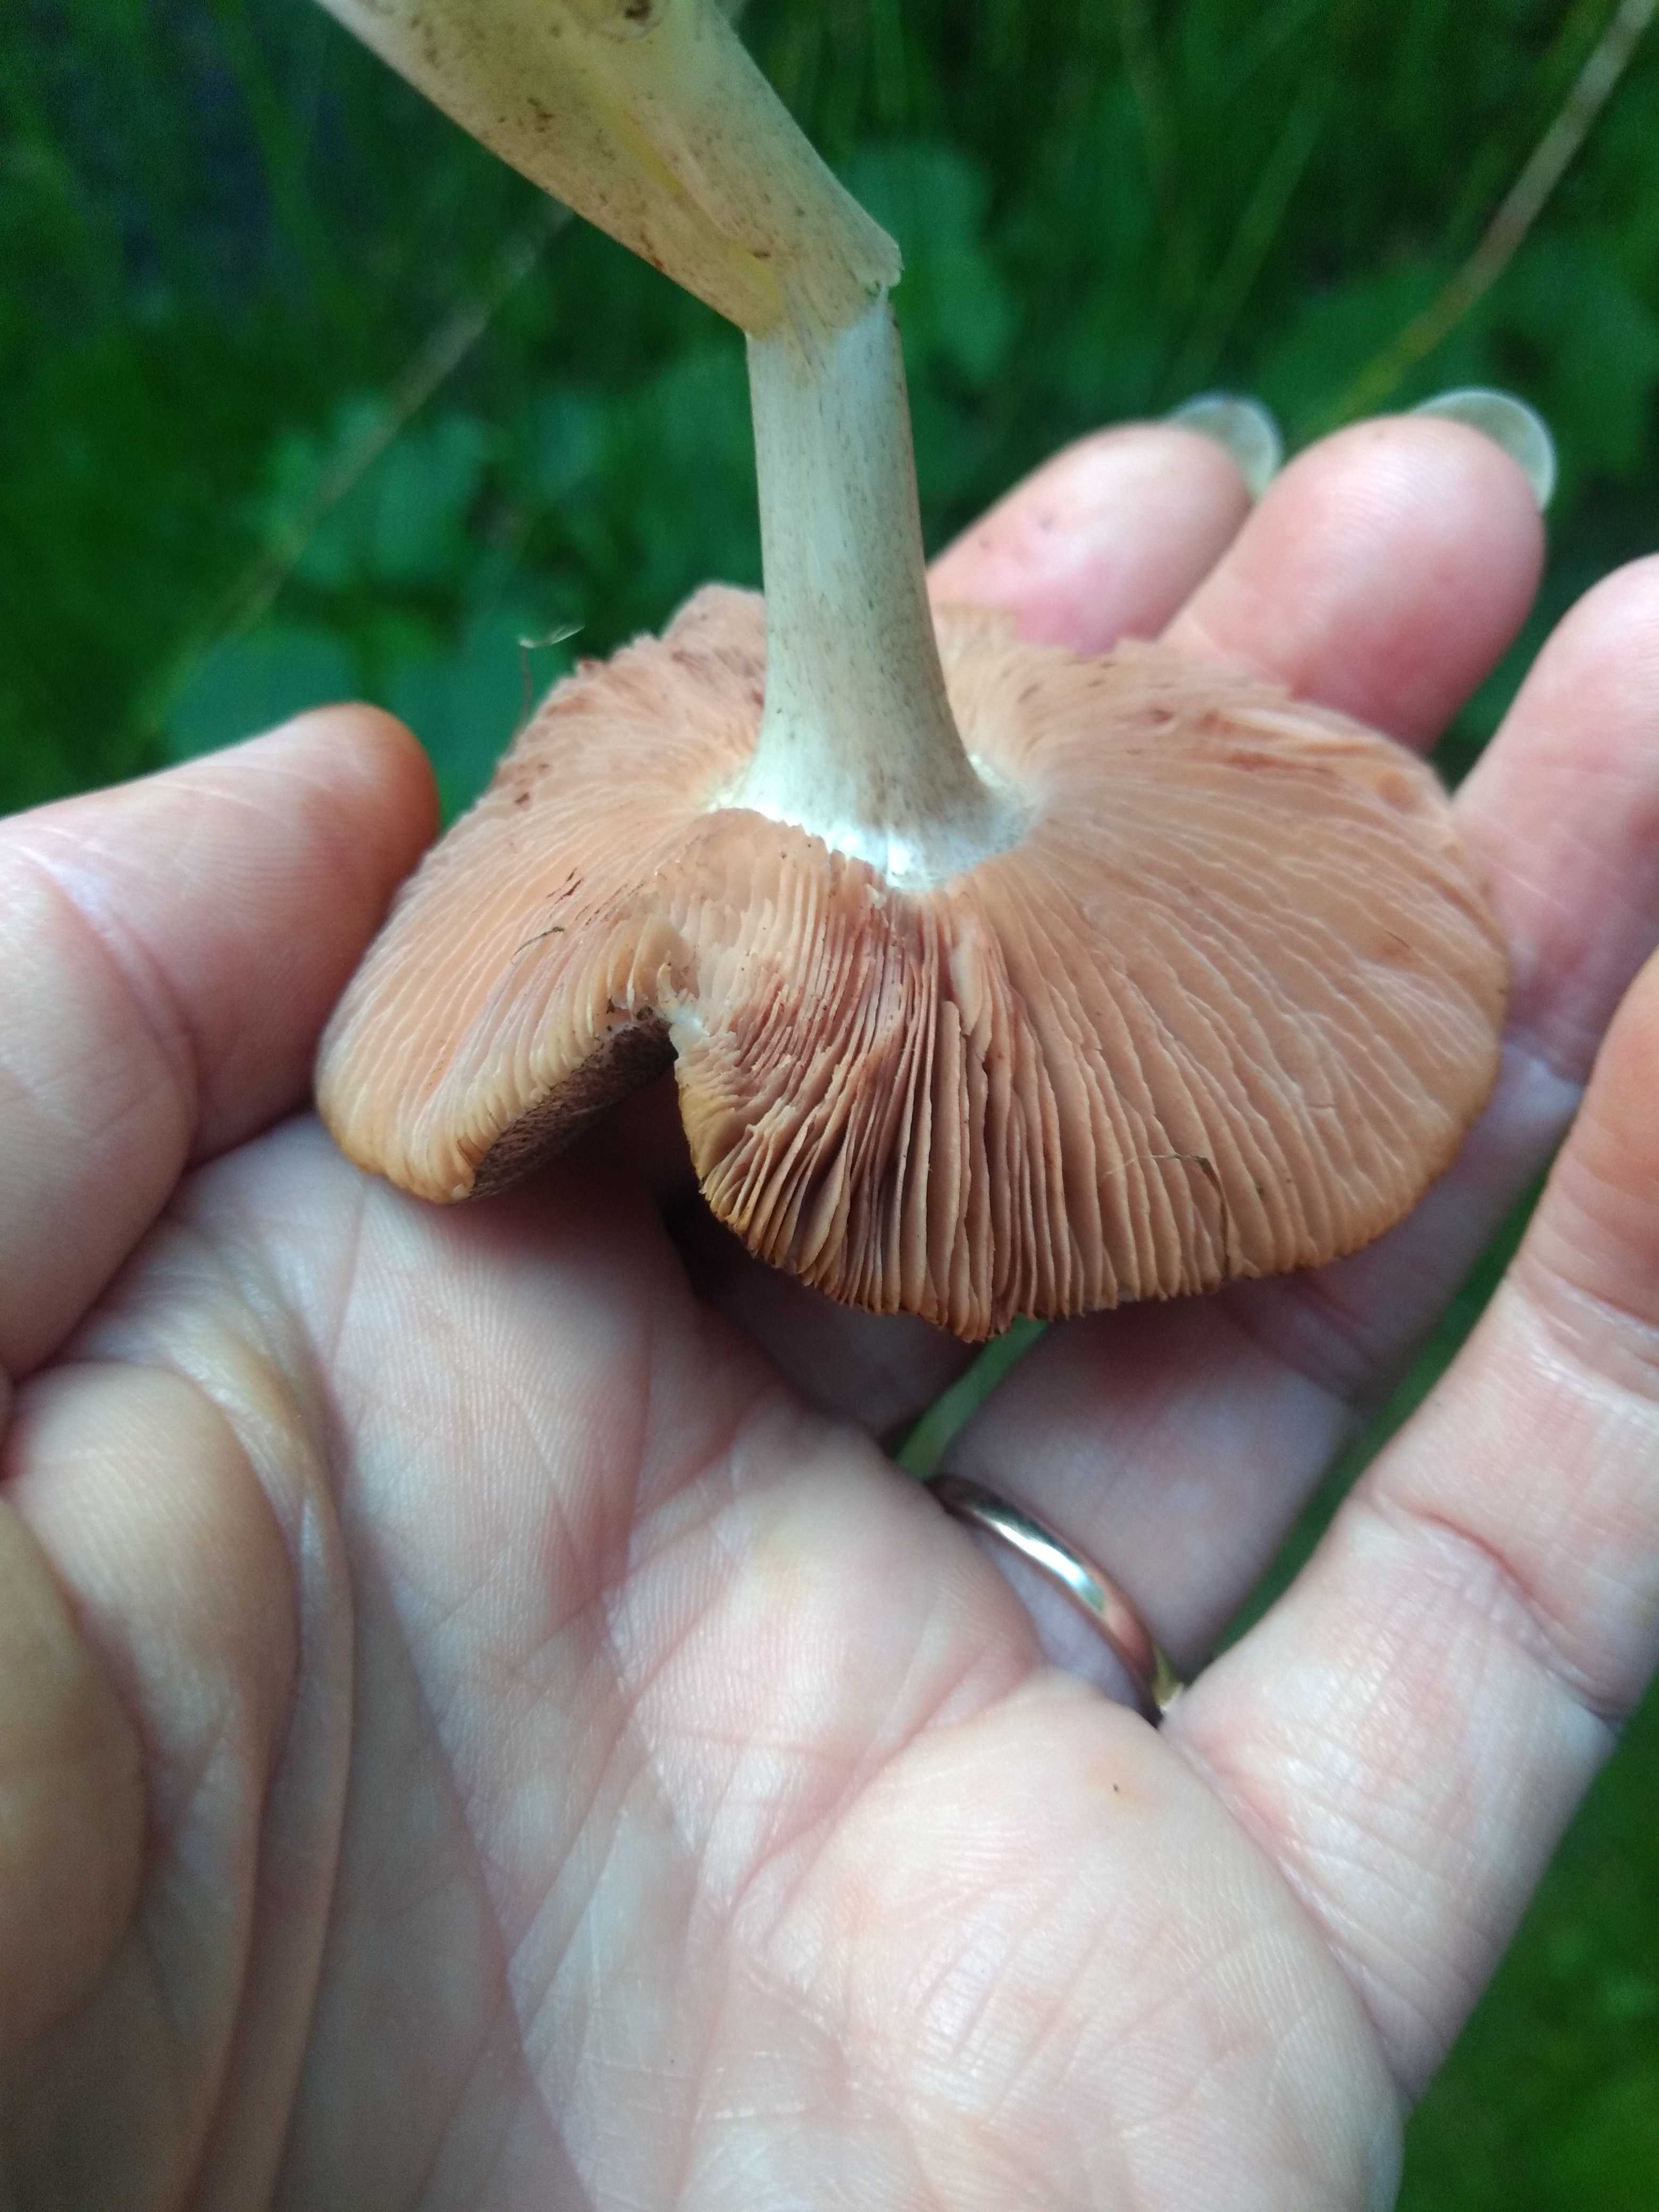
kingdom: Fungi
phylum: Basidiomycota
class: Agaricomycetes
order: Agaricales
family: Pluteaceae
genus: Pluteus
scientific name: Pluteus
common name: gråfibret skærmhat
